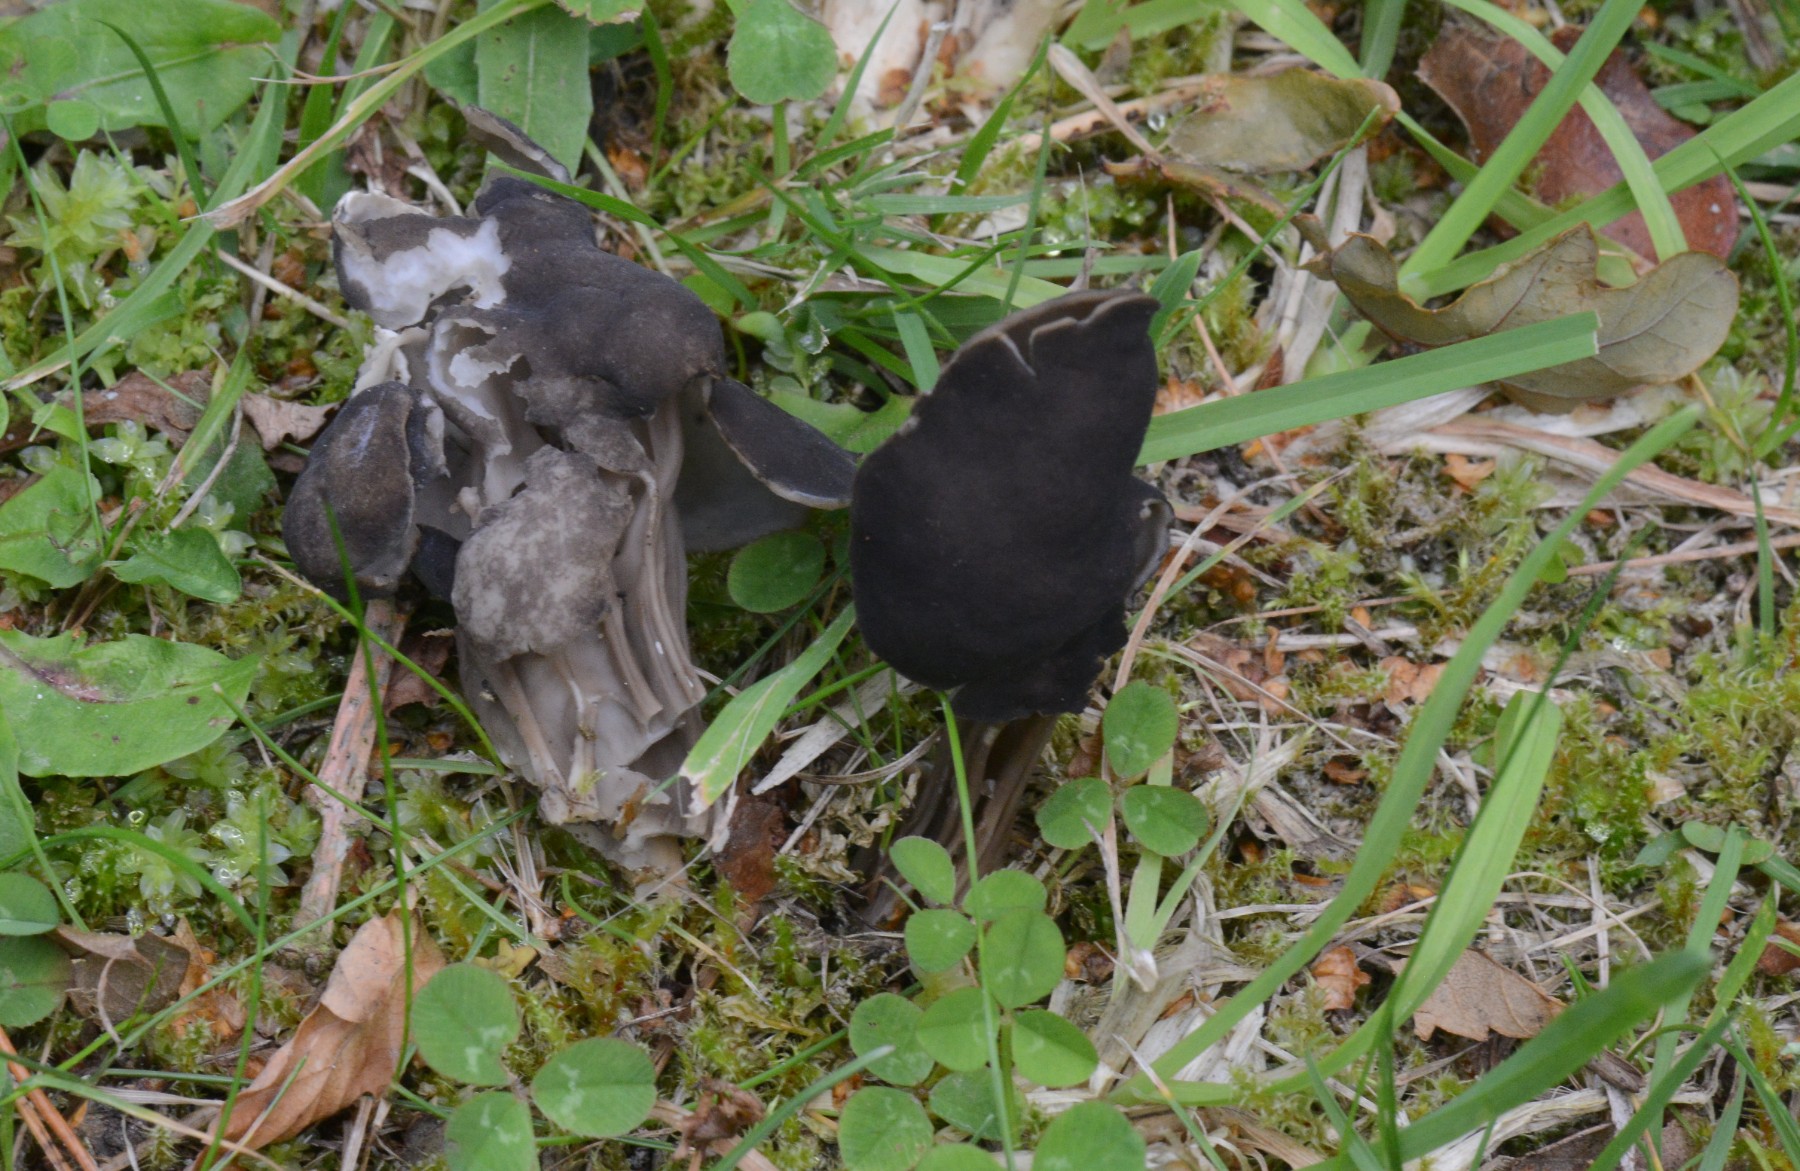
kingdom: Fungi
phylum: Ascomycota
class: Pezizomycetes
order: Pezizales
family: Helvellaceae
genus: Helvella
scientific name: Helvella lacunosa
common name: grubet foldhat
